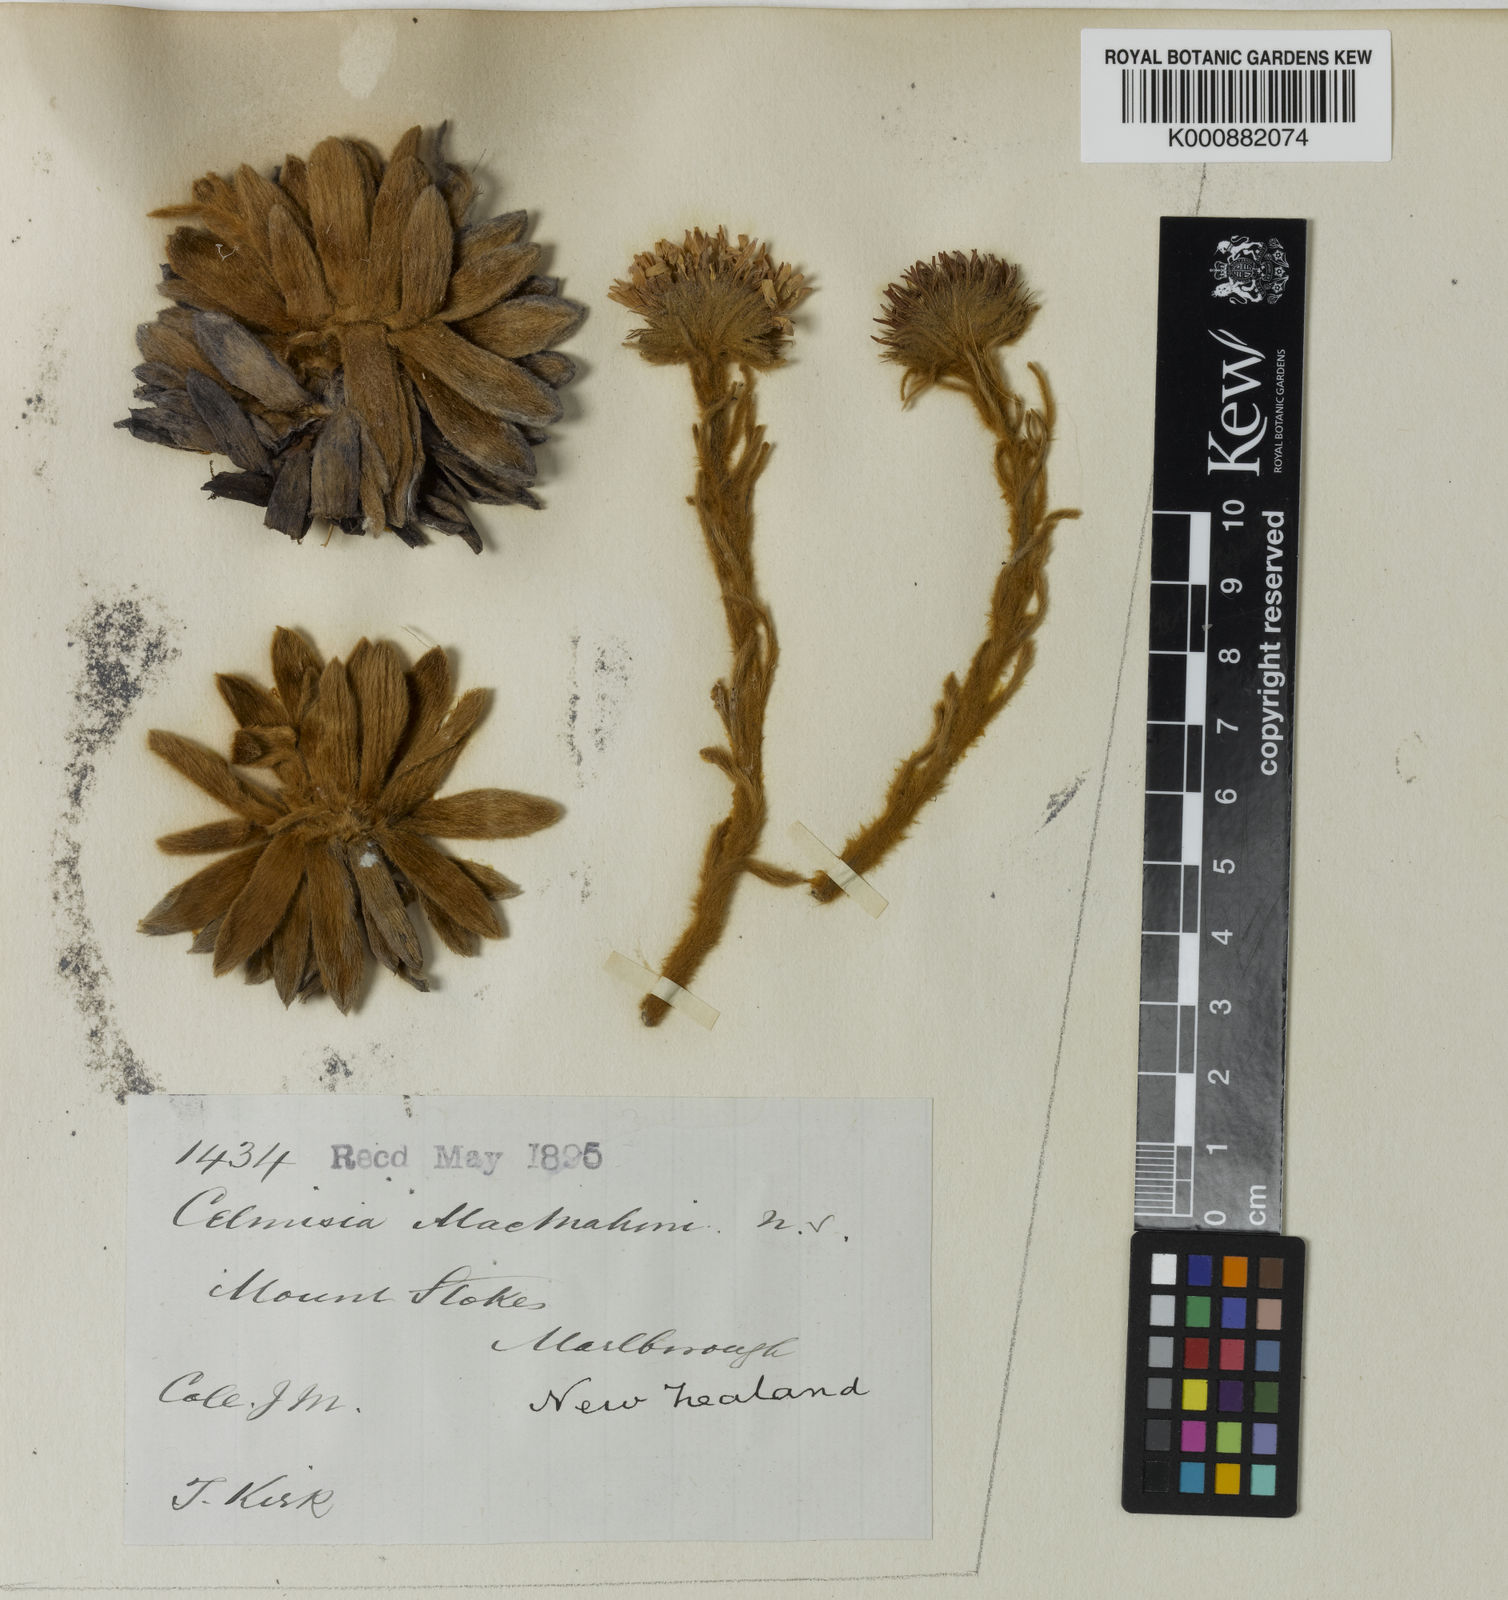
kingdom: Plantae
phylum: Tracheophyta
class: Magnoliopsida
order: Asterales
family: Asteraceae
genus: Celmisia
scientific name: Celmisia macmahonii
